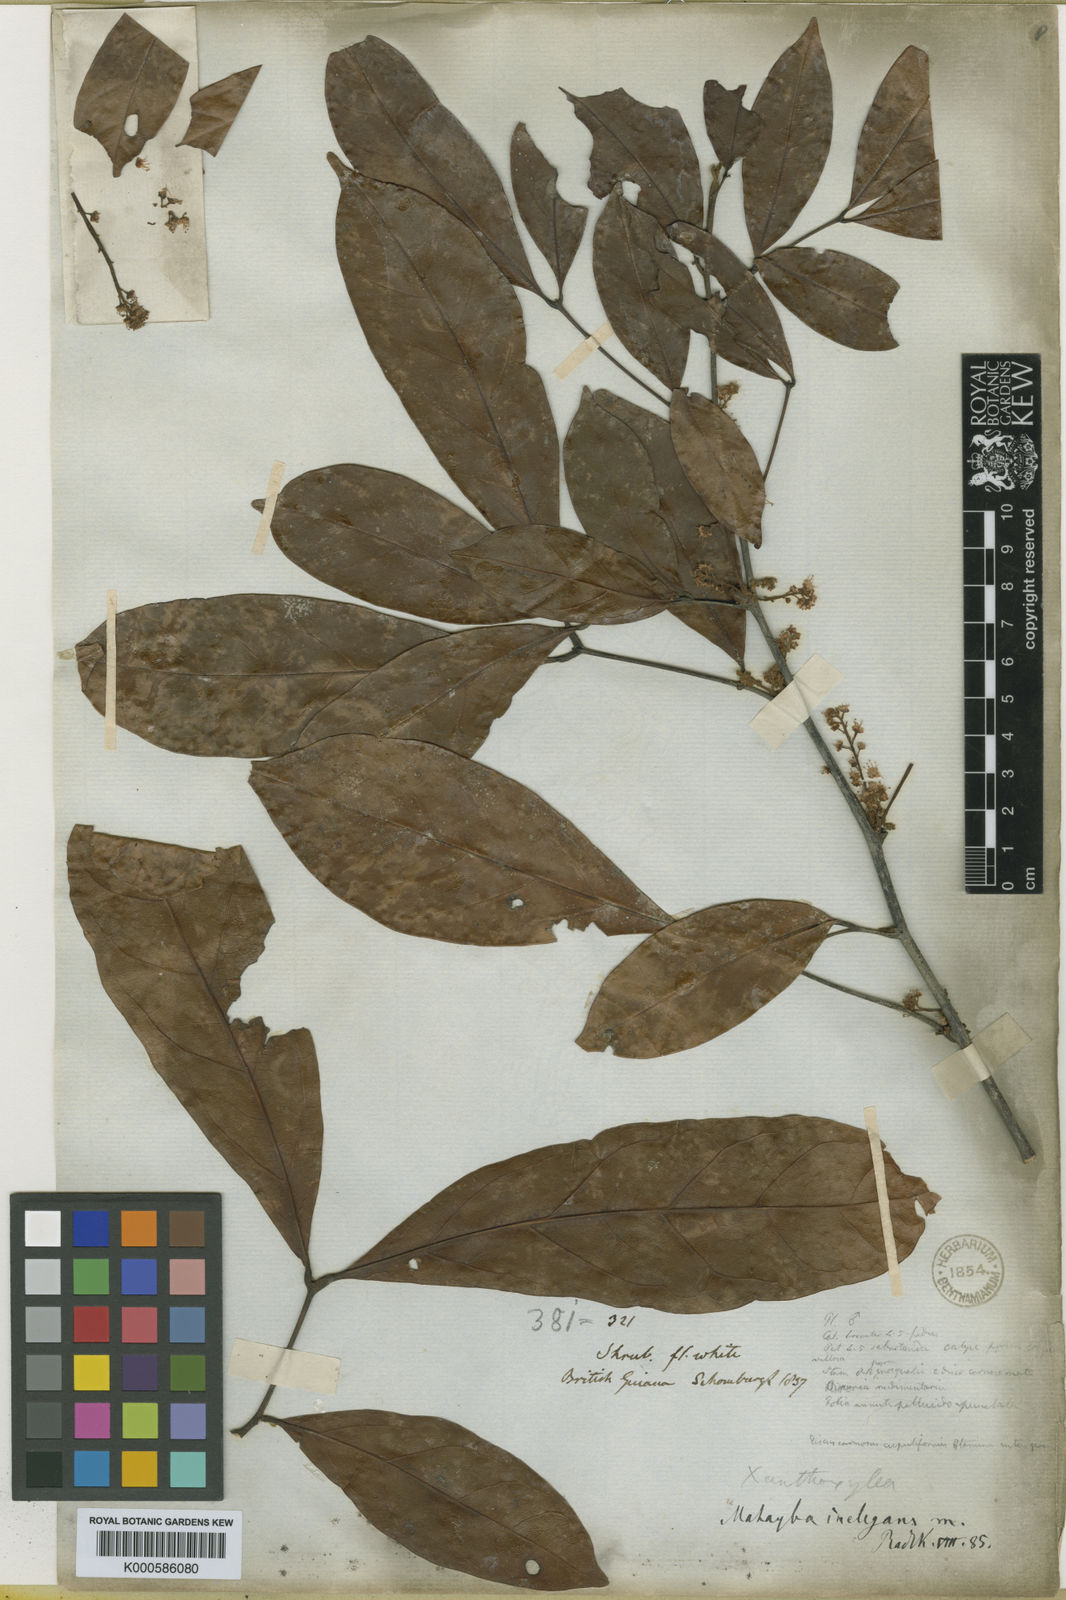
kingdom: Plantae
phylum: Tracheophyta
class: Magnoliopsida
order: Sapindales
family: Sapindaceae
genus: Matayba
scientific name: Matayba inelegans
